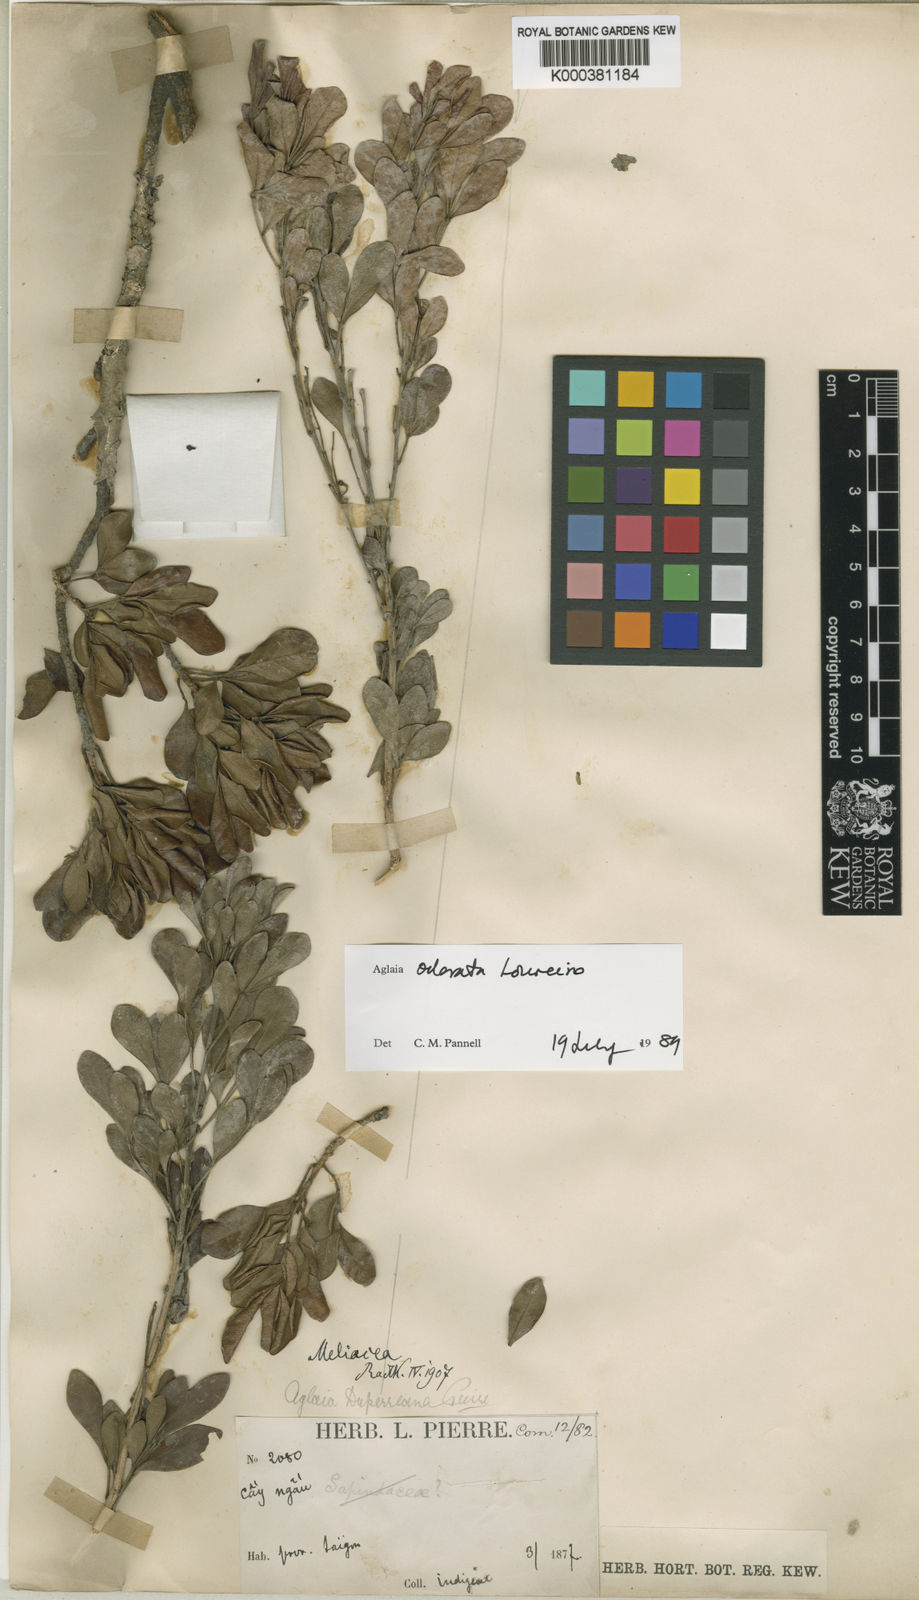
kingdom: Plantae
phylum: Tracheophyta
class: Magnoliopsida
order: Sapindales
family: Meliaceae
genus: Aglaia
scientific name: Aglaia odorata
